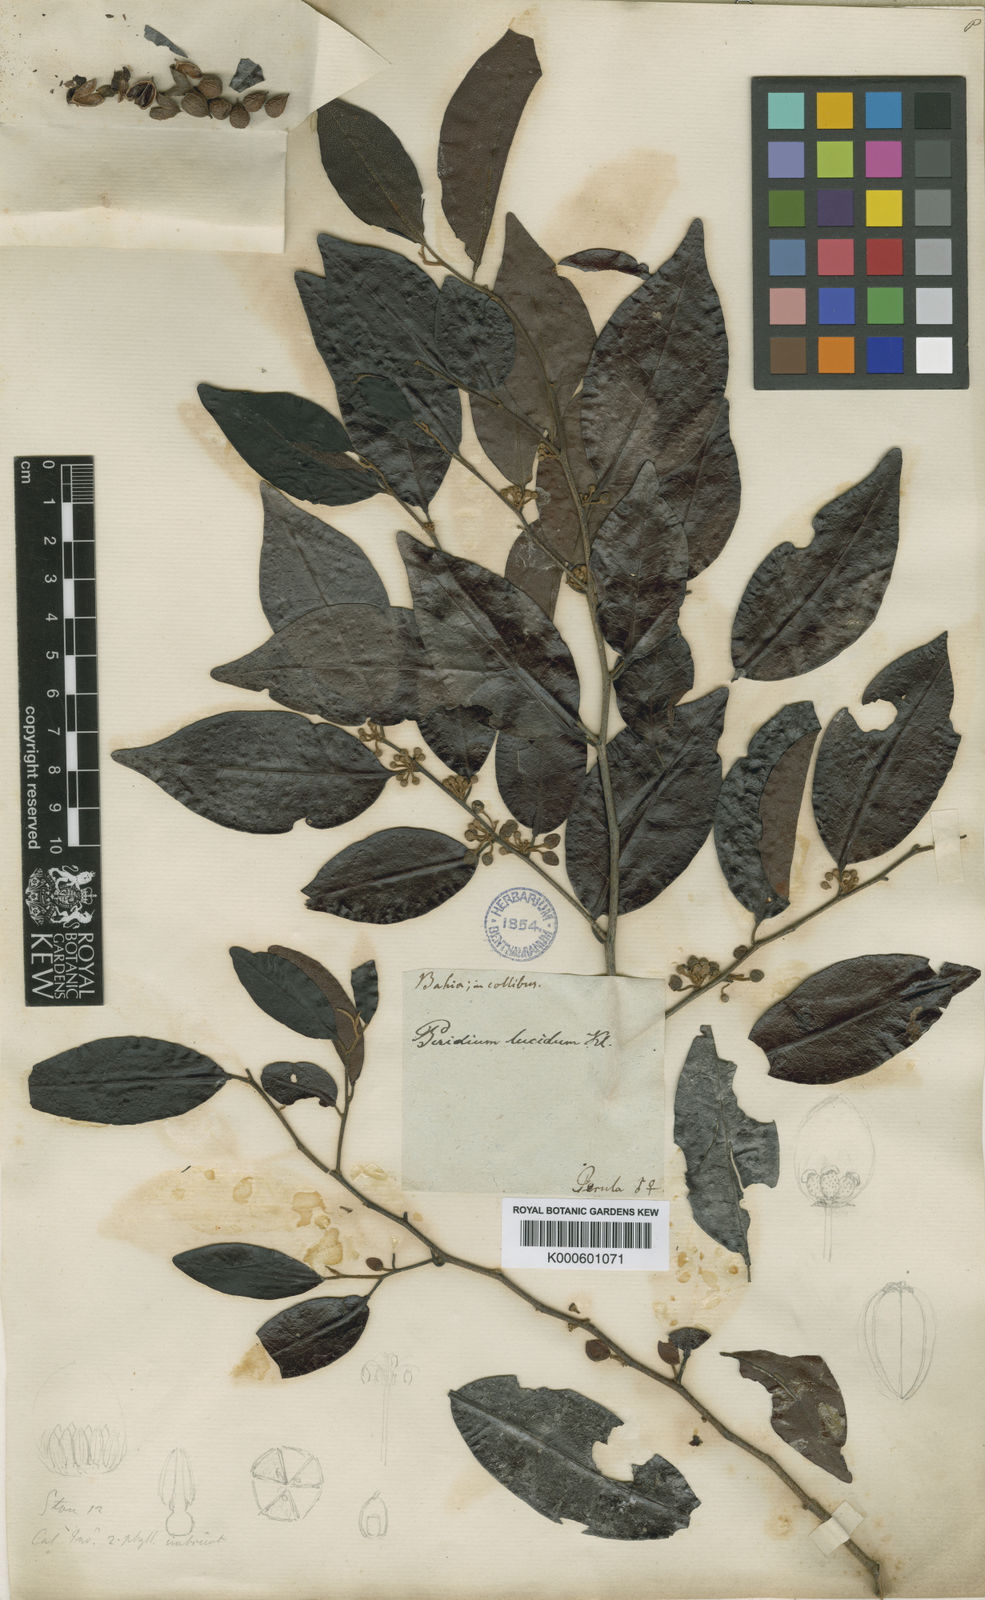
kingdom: Plantae
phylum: Tracheophyta
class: Magnoliopsida
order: Malpighiales
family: Peraceae
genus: Pera
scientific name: Pera
